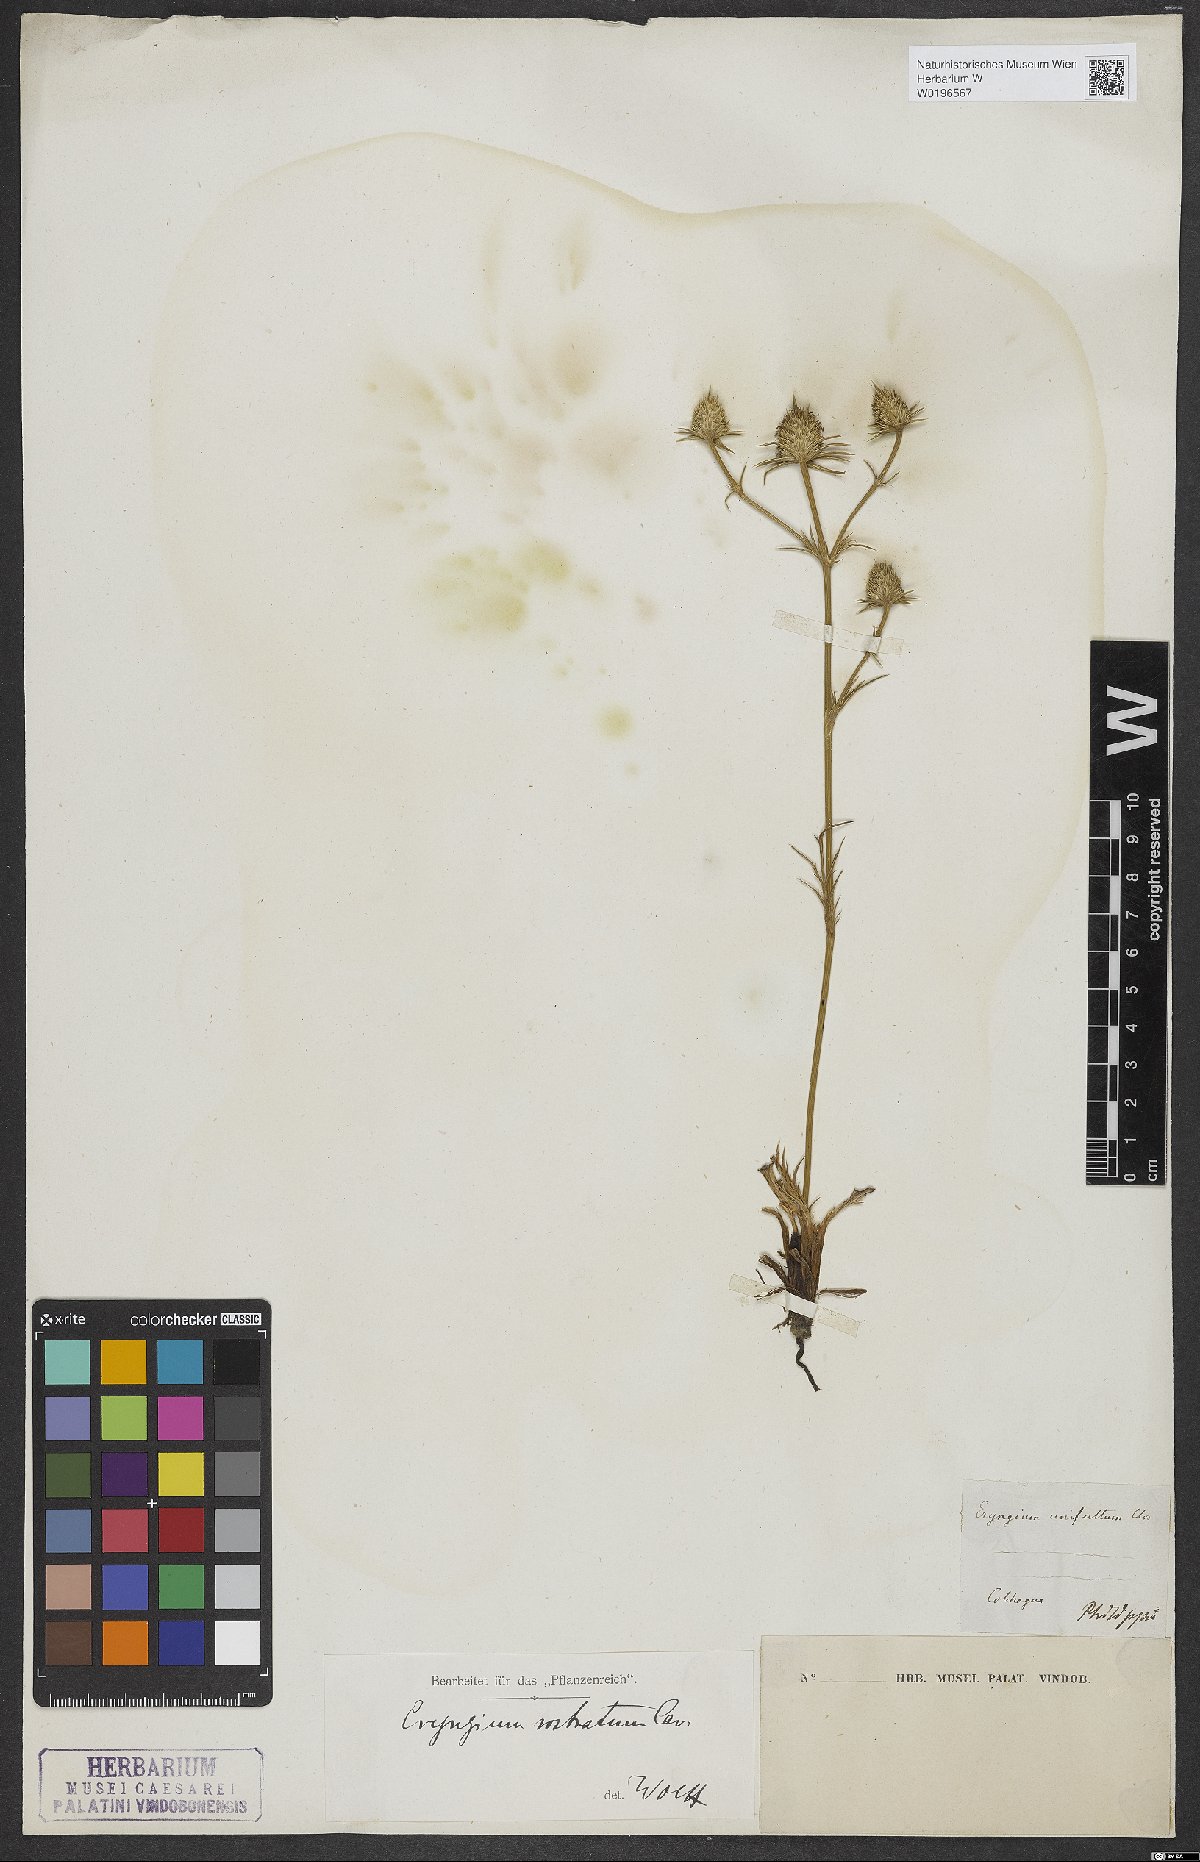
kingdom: Plantae
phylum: Tracheophyta
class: Magnoliopsida
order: Apiales
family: Apiaceae
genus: Eryngium
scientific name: Eryngium rostratum
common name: Blue eryngo
